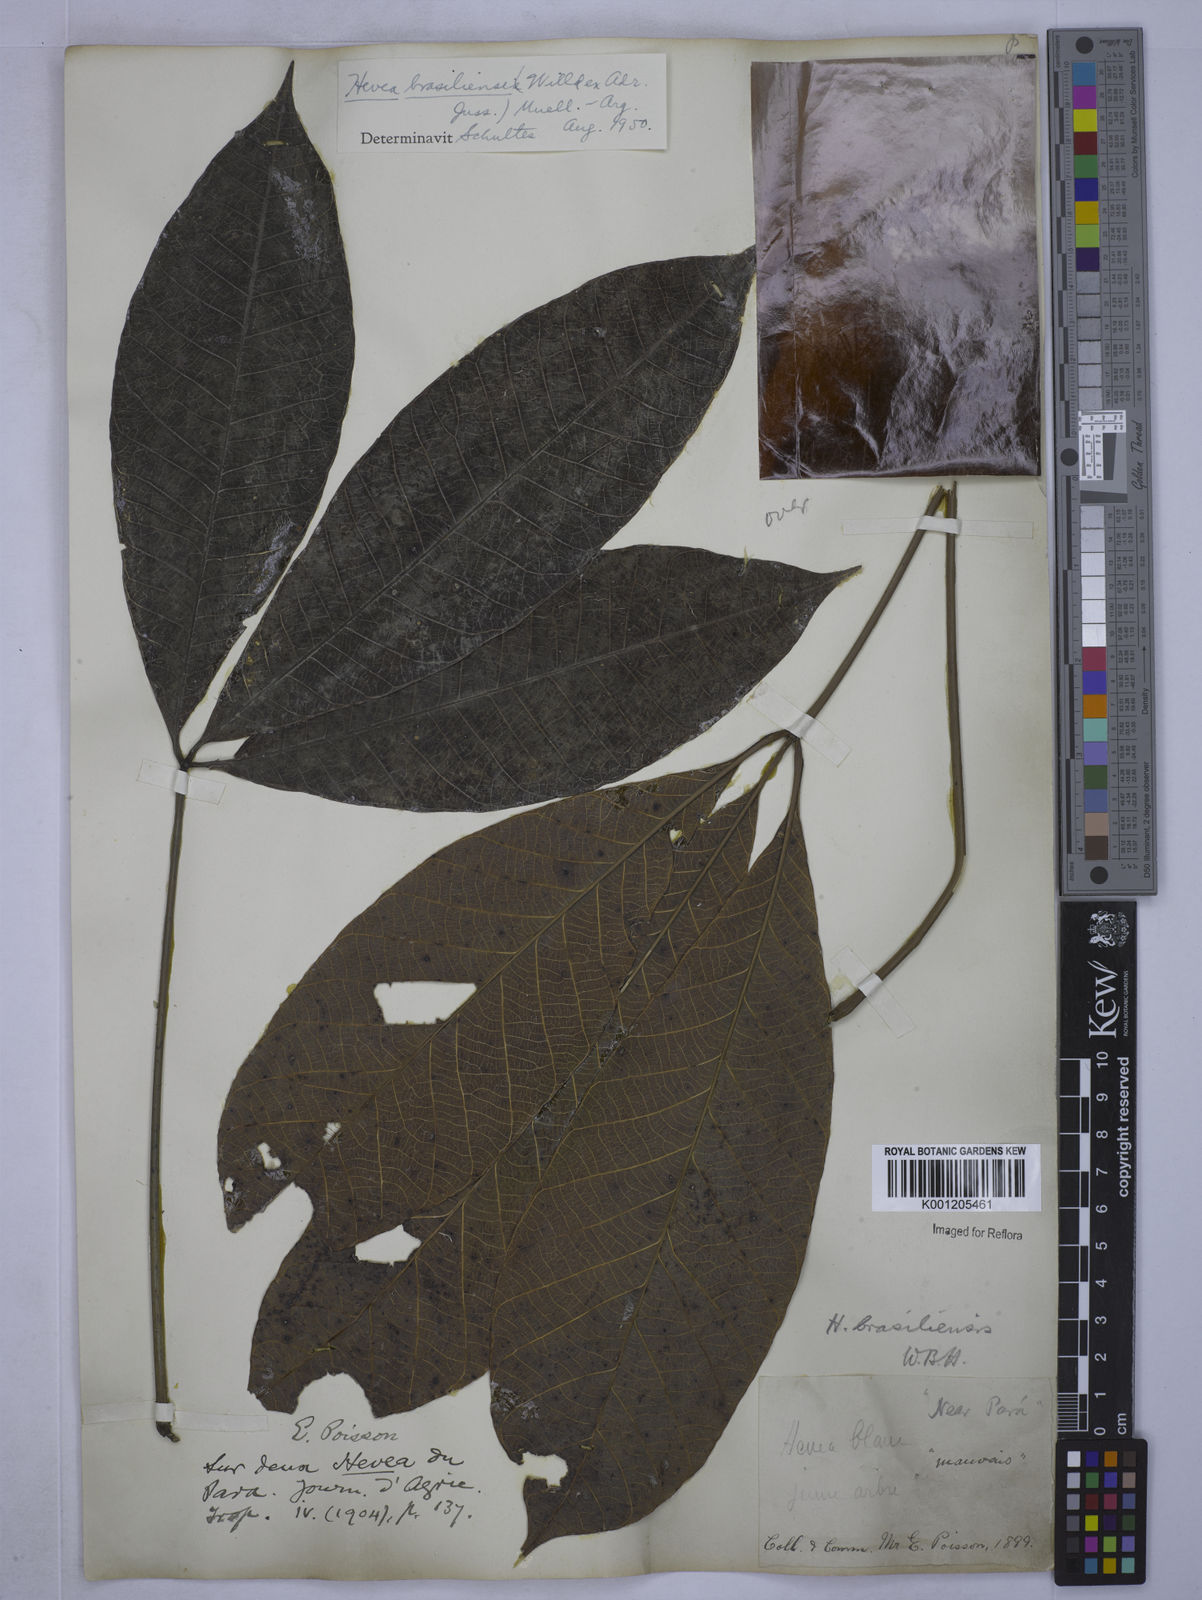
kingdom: Plantae
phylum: Tracheophyta
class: Magnoliopsida
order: Malpighiales
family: Euphorbiaceae
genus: Hevea
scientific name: Hevea
